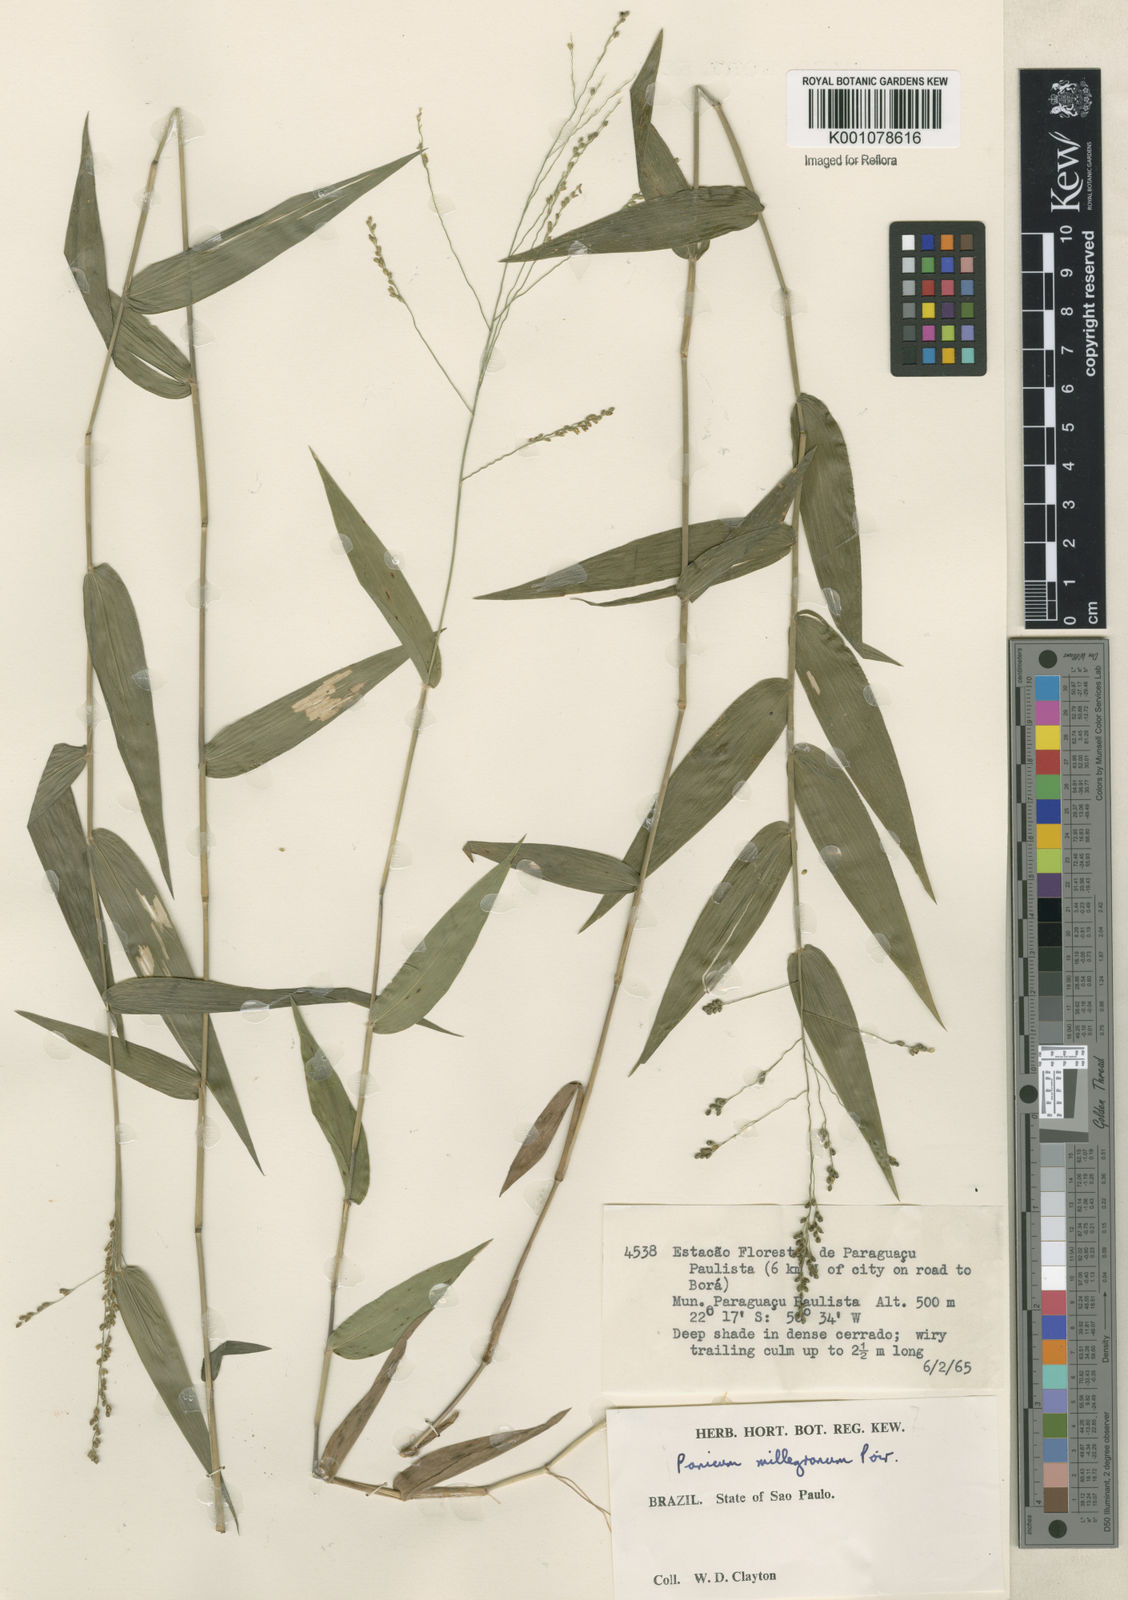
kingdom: Plantae
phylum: Tracheophyta
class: Liliopsida
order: Poales
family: Poaceae
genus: Panicum
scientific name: Panicum sellowii
